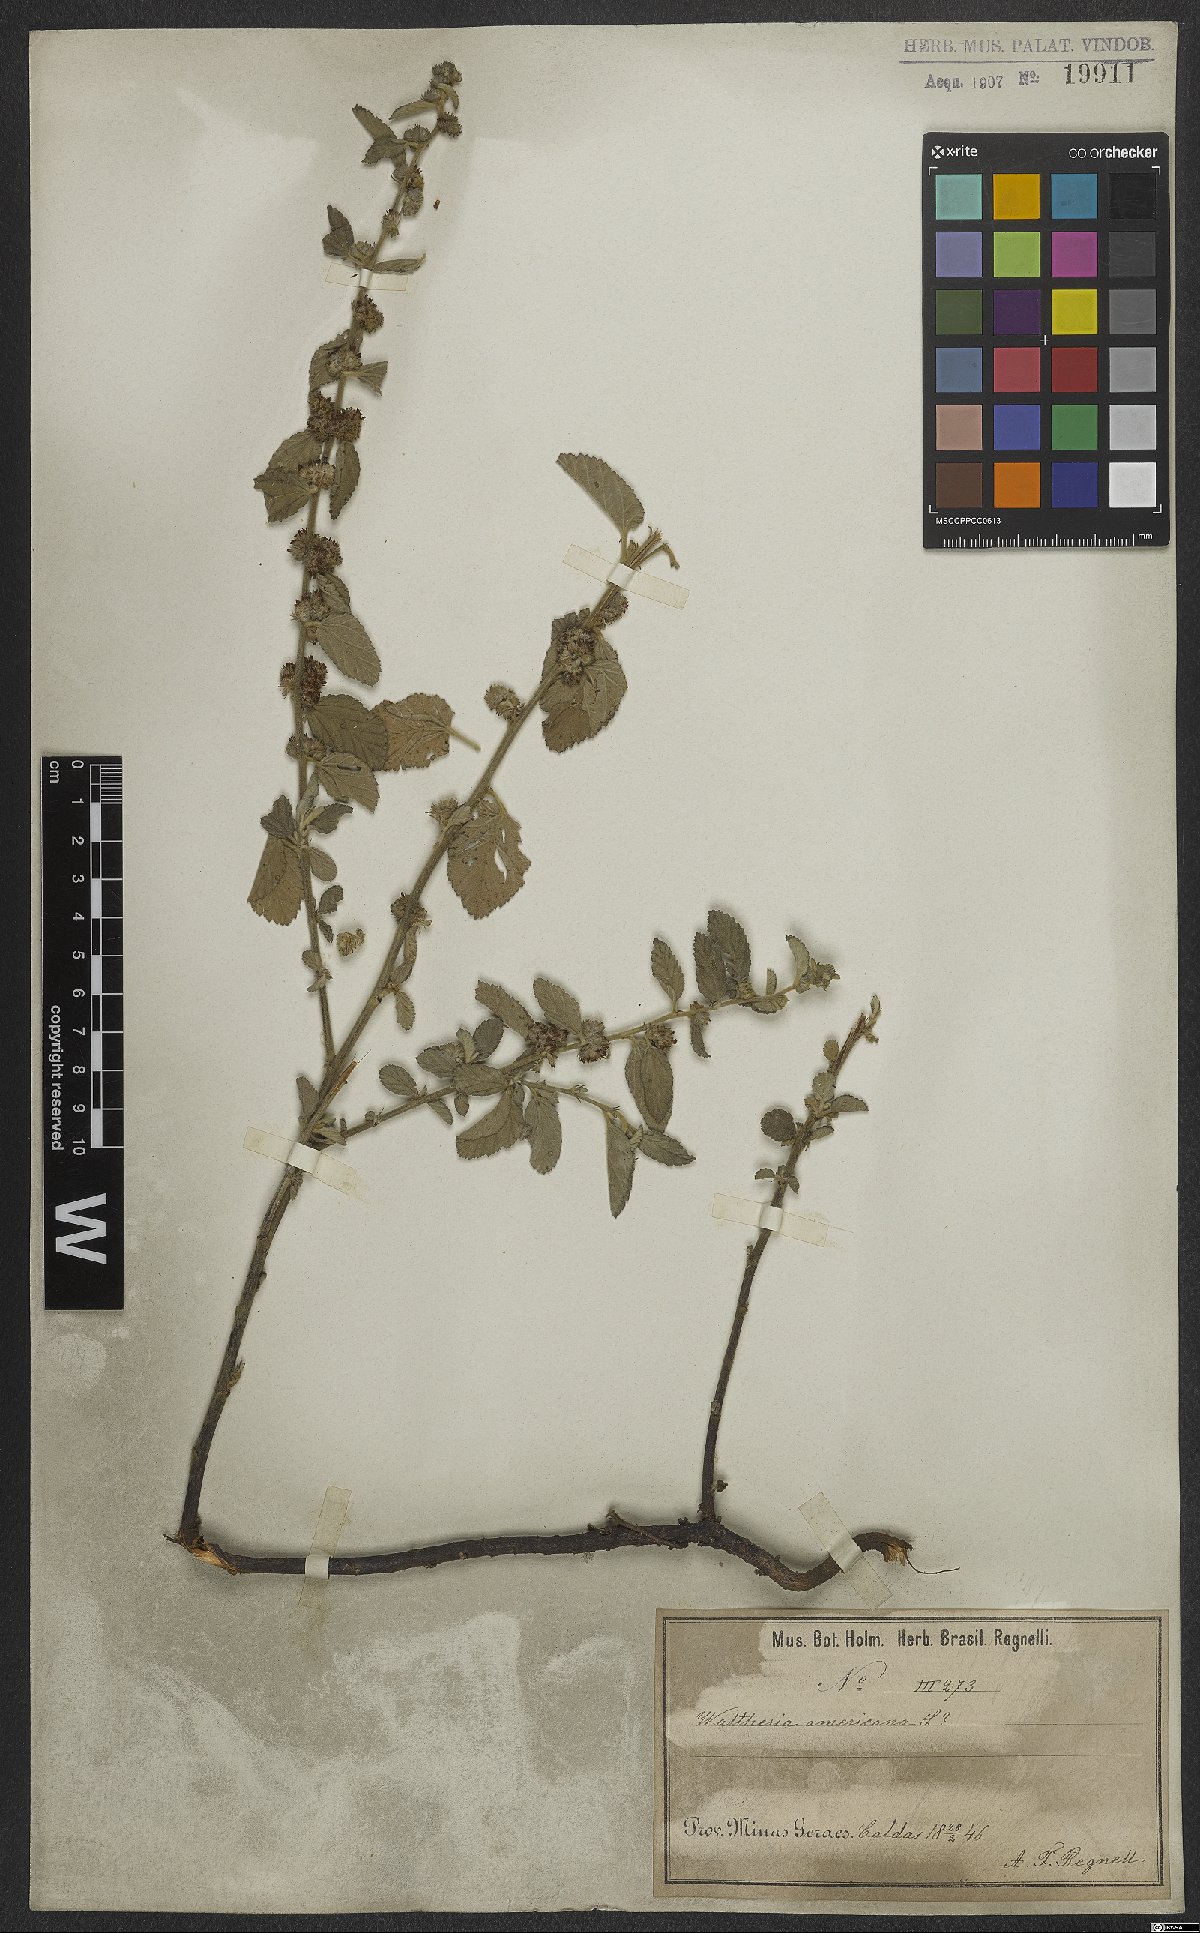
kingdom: Plantae
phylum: Tracheophyta
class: Magnoliopsida
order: Malvales
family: Malvaceae
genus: Waltheria
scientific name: Waltheria indica
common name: Leather-coat
